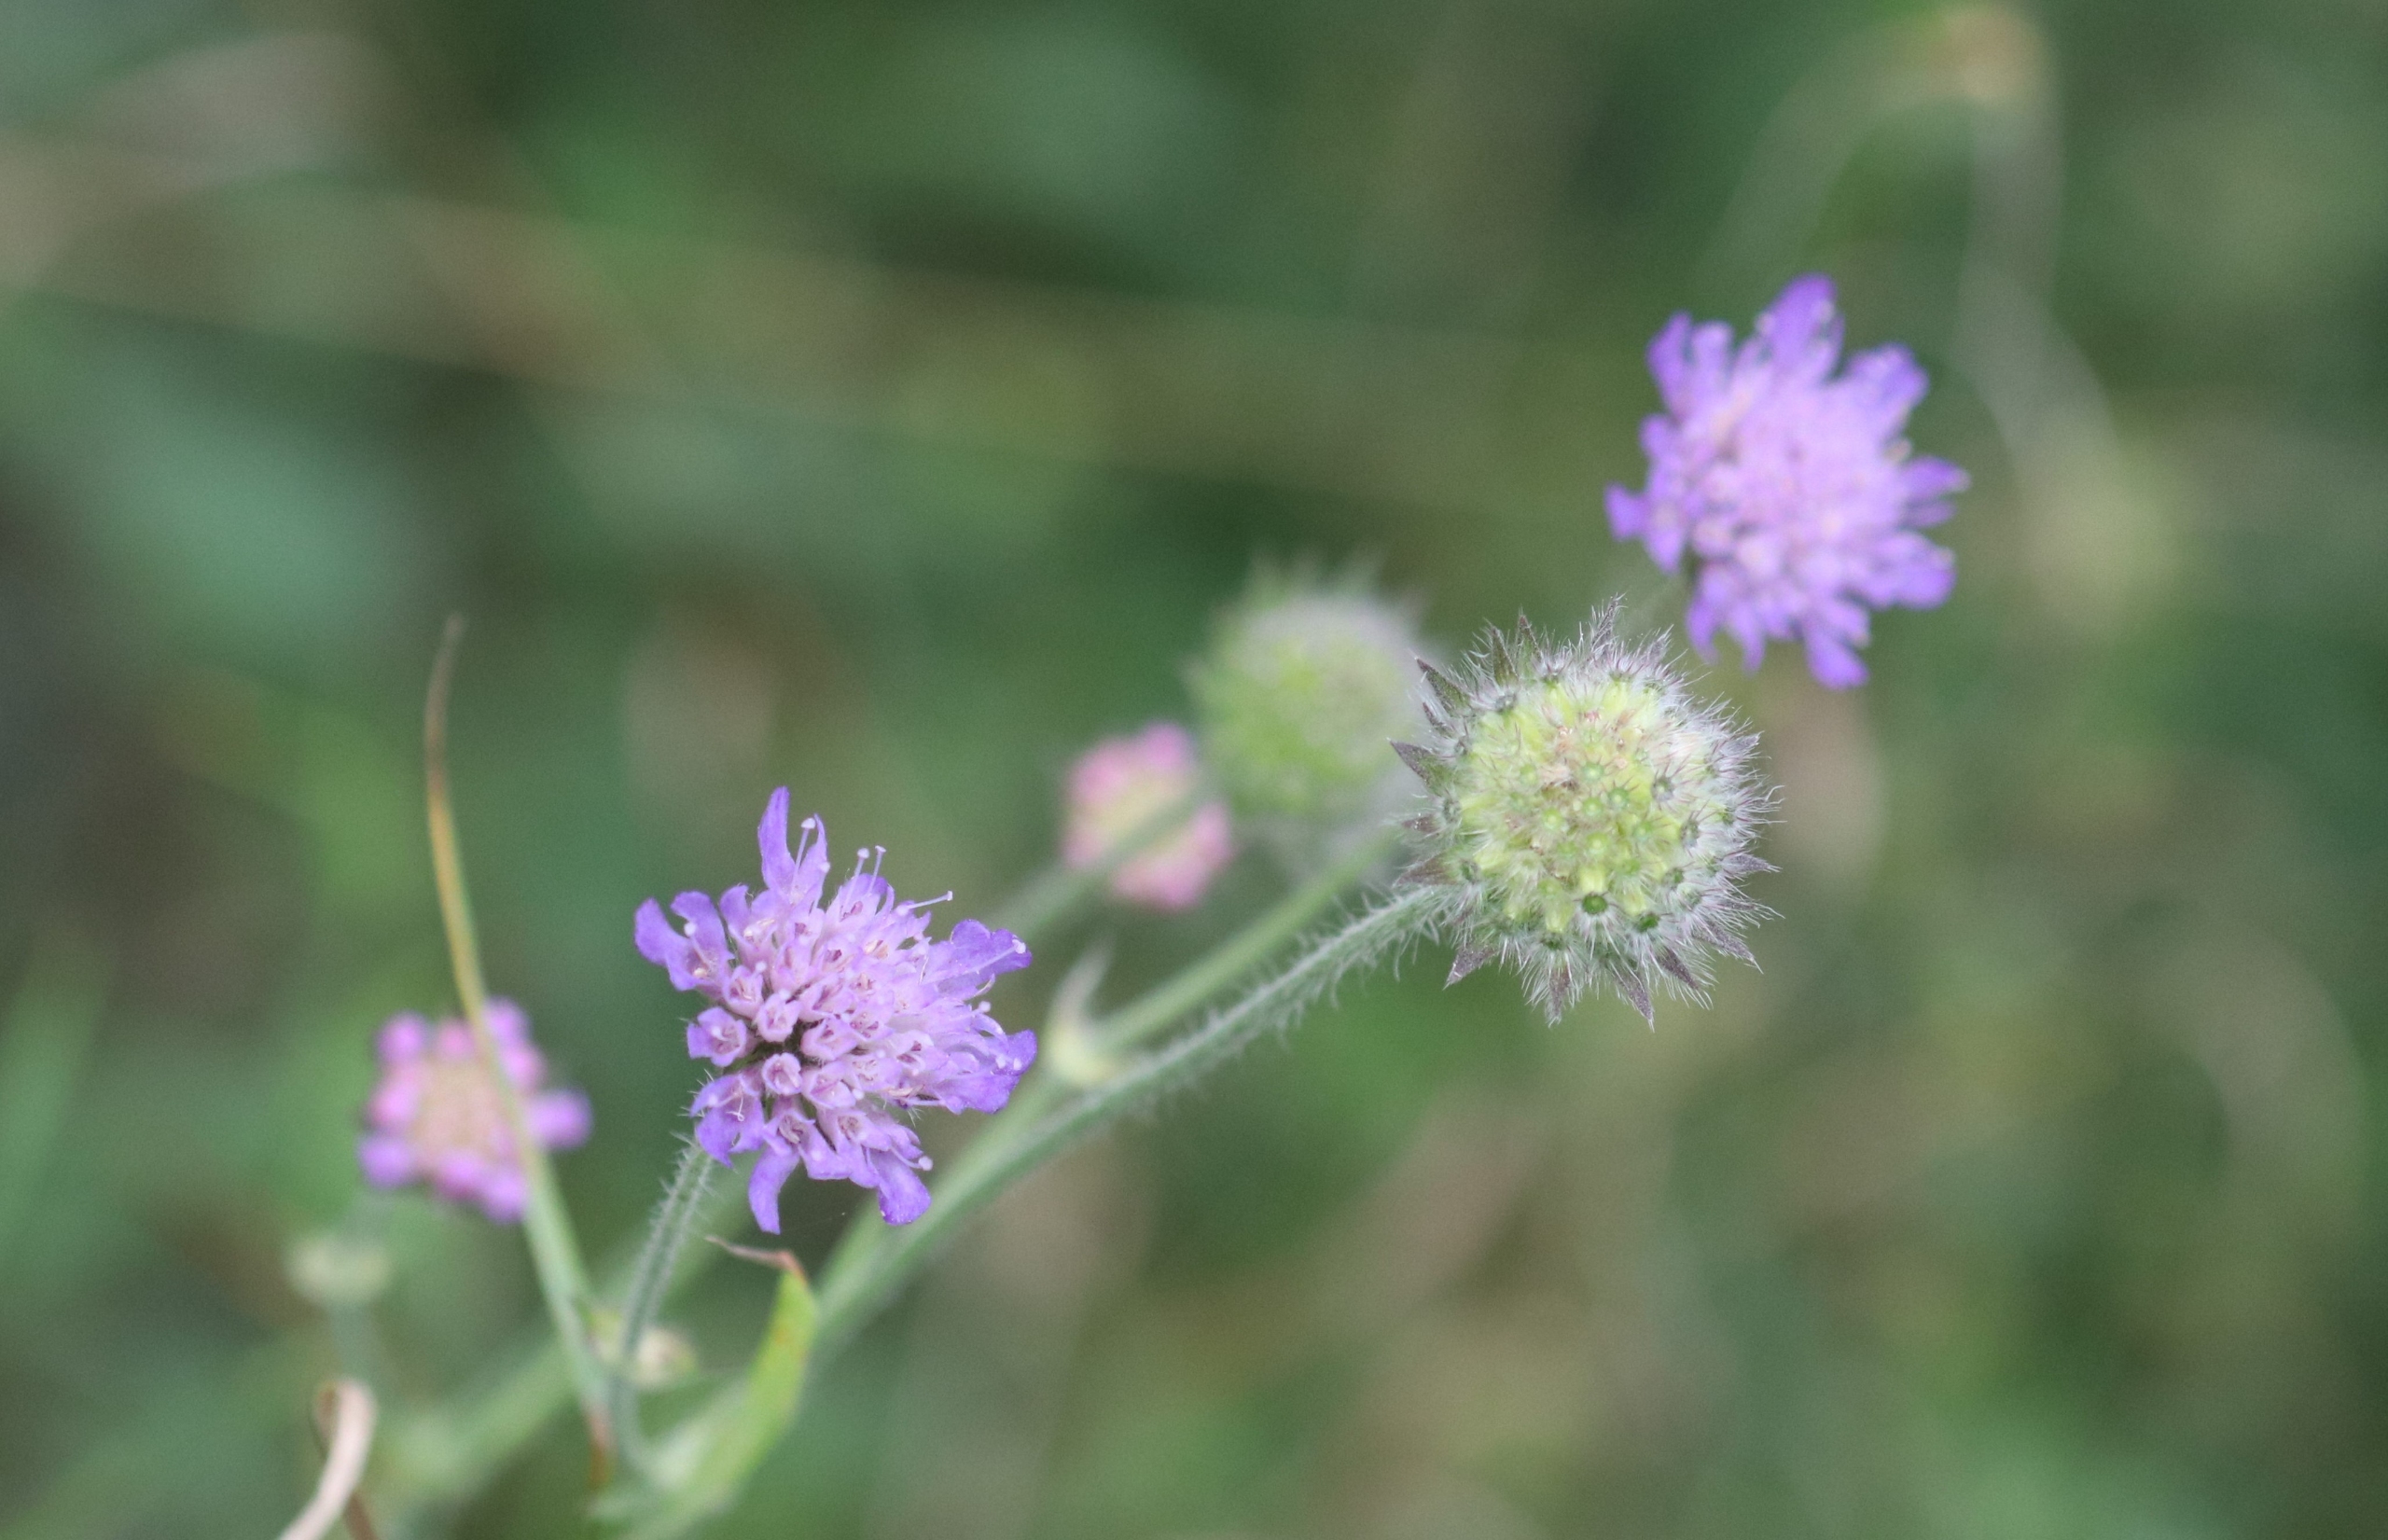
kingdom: Plantae
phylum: Tracheophyta
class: Magnoliopsida
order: Dipsacales
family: Caprifoliaceae
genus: Knautia
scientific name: Knautia arvensis
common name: Blåhat
